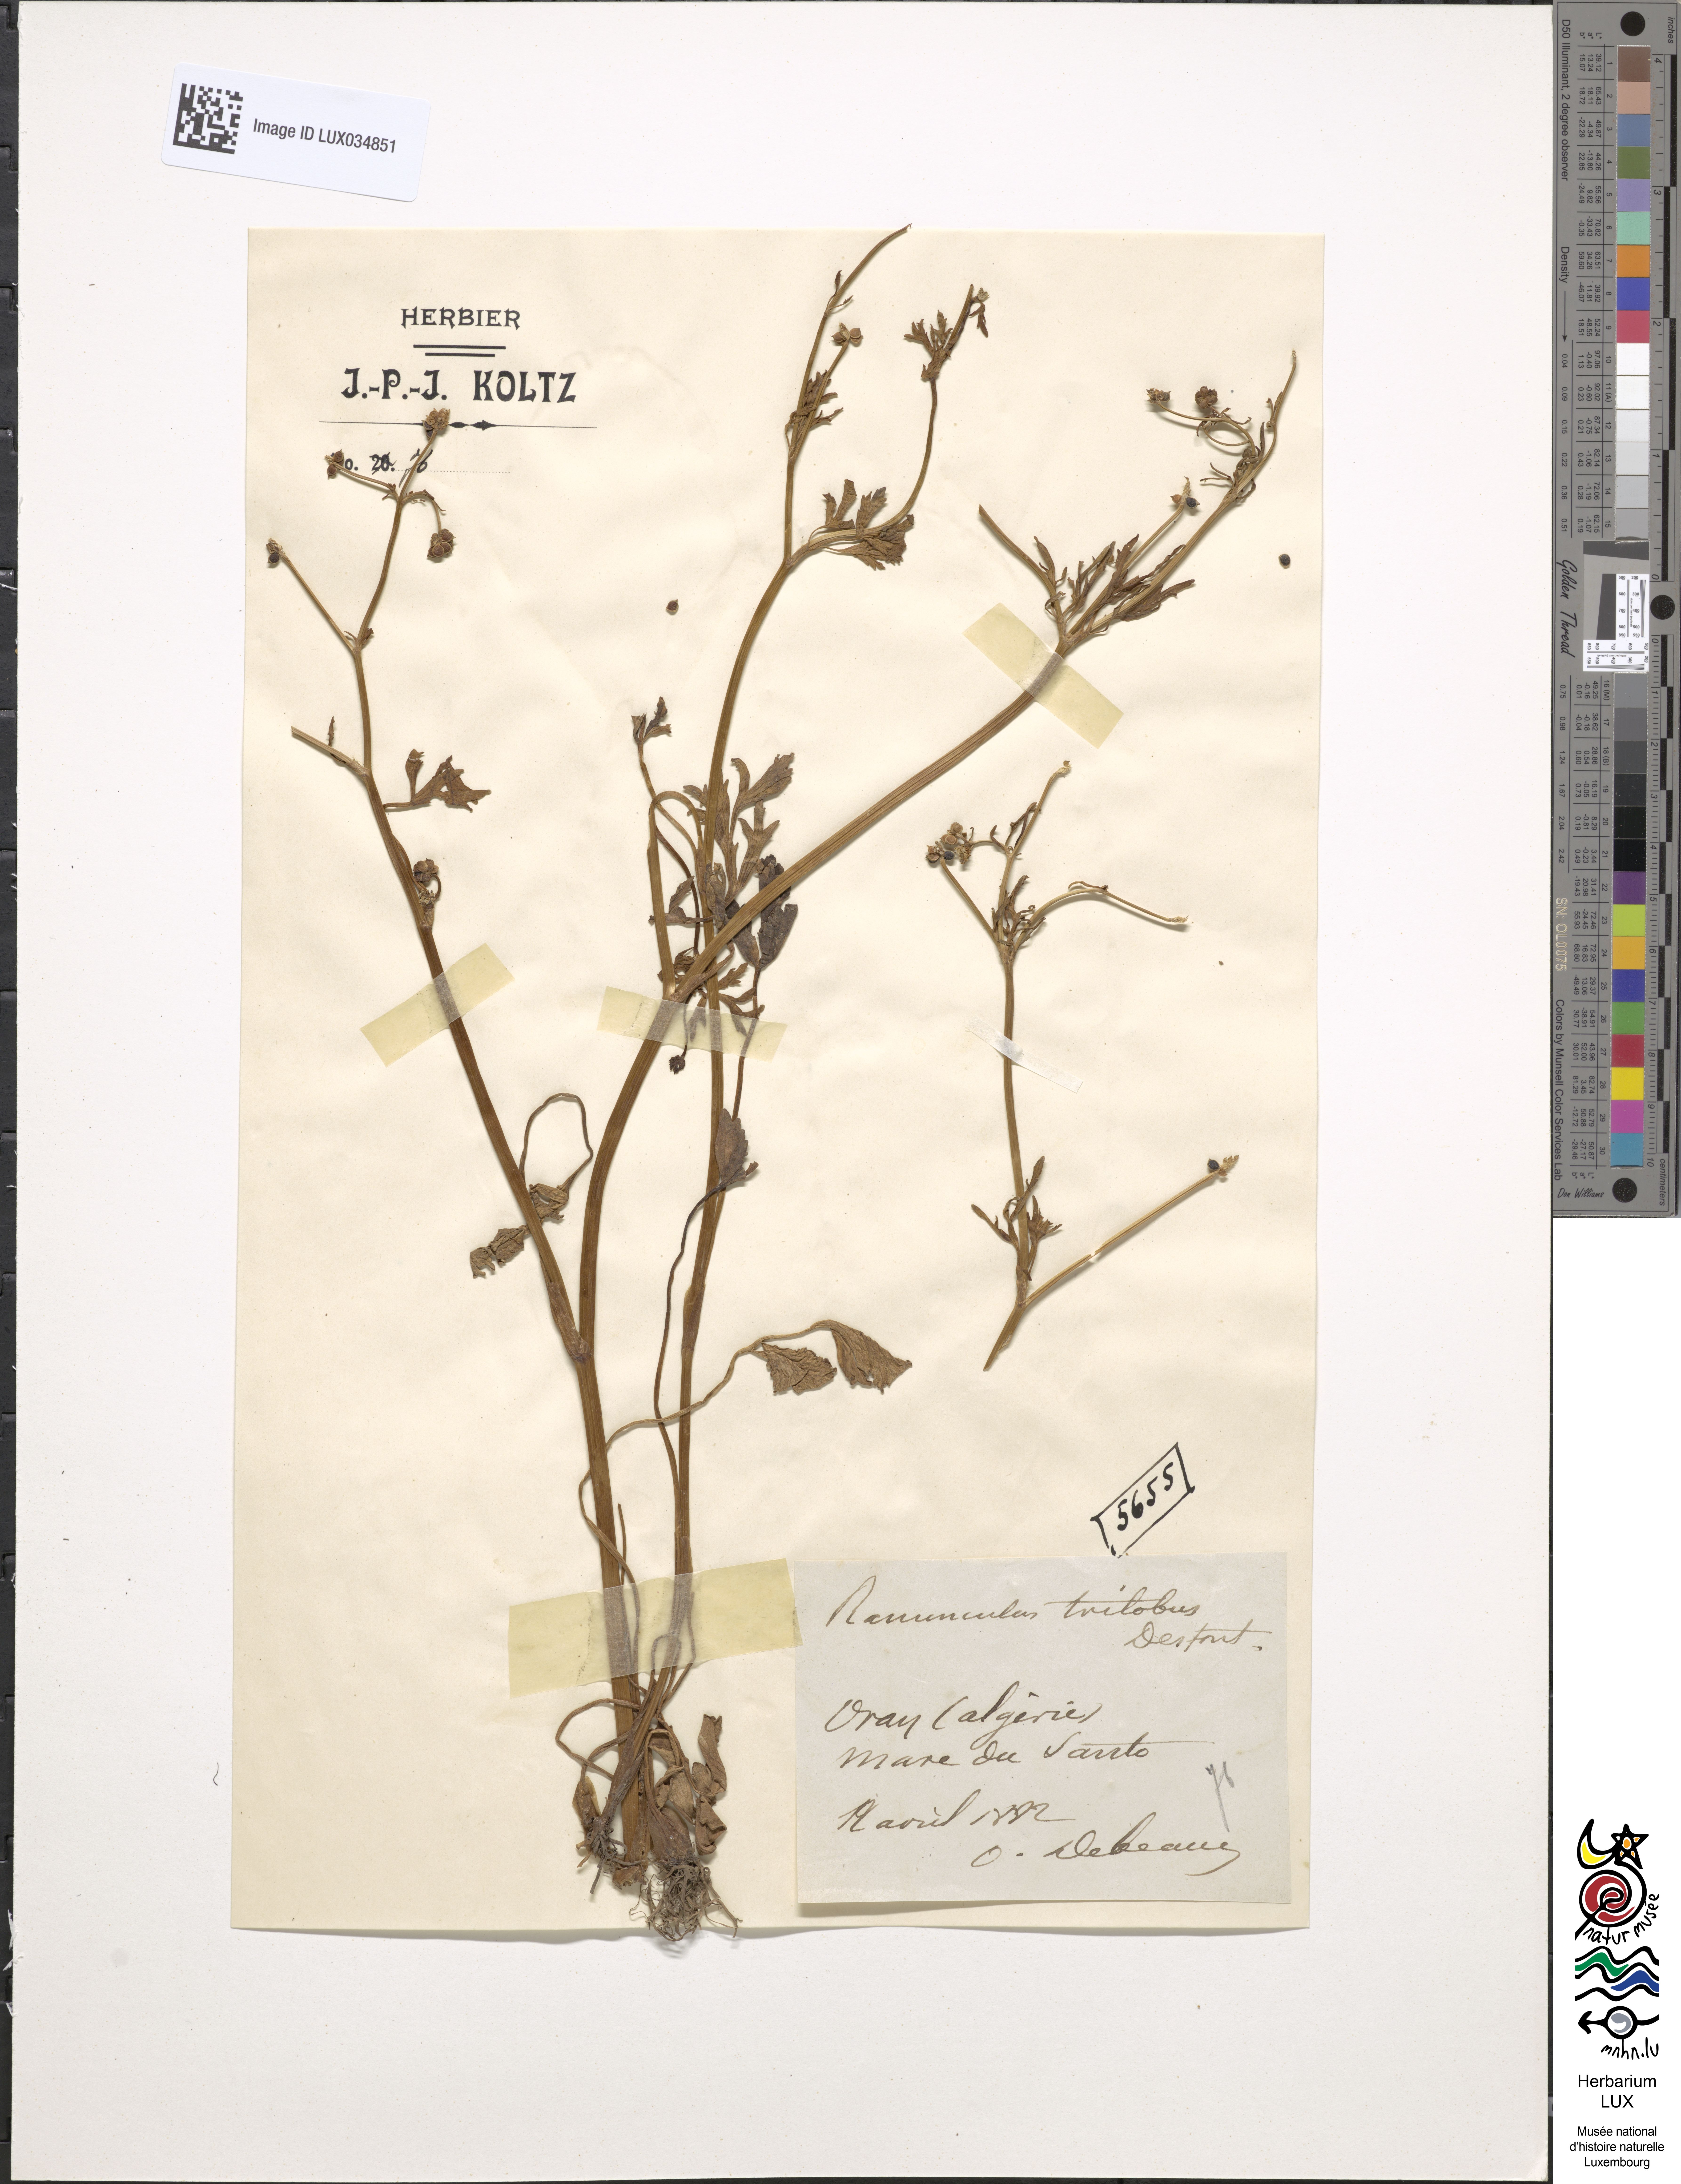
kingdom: Plantae
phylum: Tracheophyta
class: Magnoliopsida
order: Ranunculales
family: Ranunculaceae
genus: Ranunculus
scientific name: Ranunculus trilobus
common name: Threelobe buttercup
